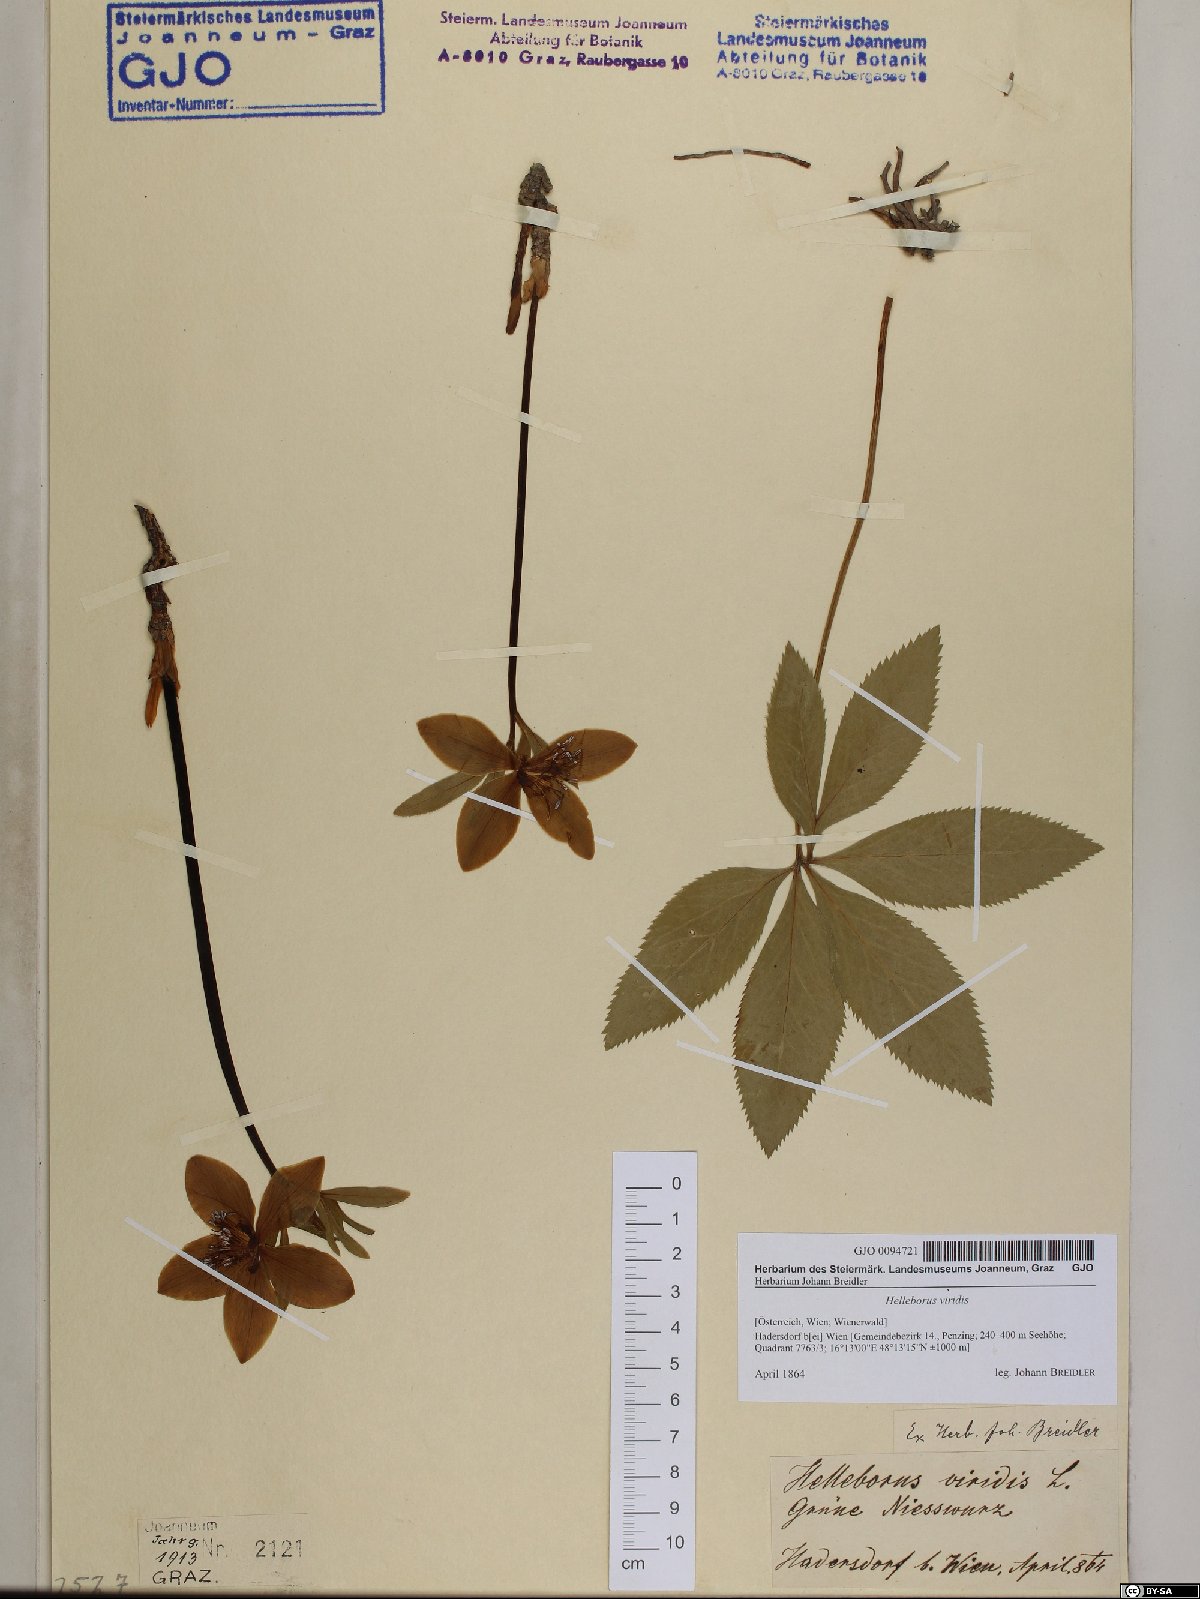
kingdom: Plantae
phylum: Tracheophyta
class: Magnoliopsida
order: Ranunculales
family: Ranunculaceae
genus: Helleborus
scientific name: Helleborus viridis
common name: Green hellebore
